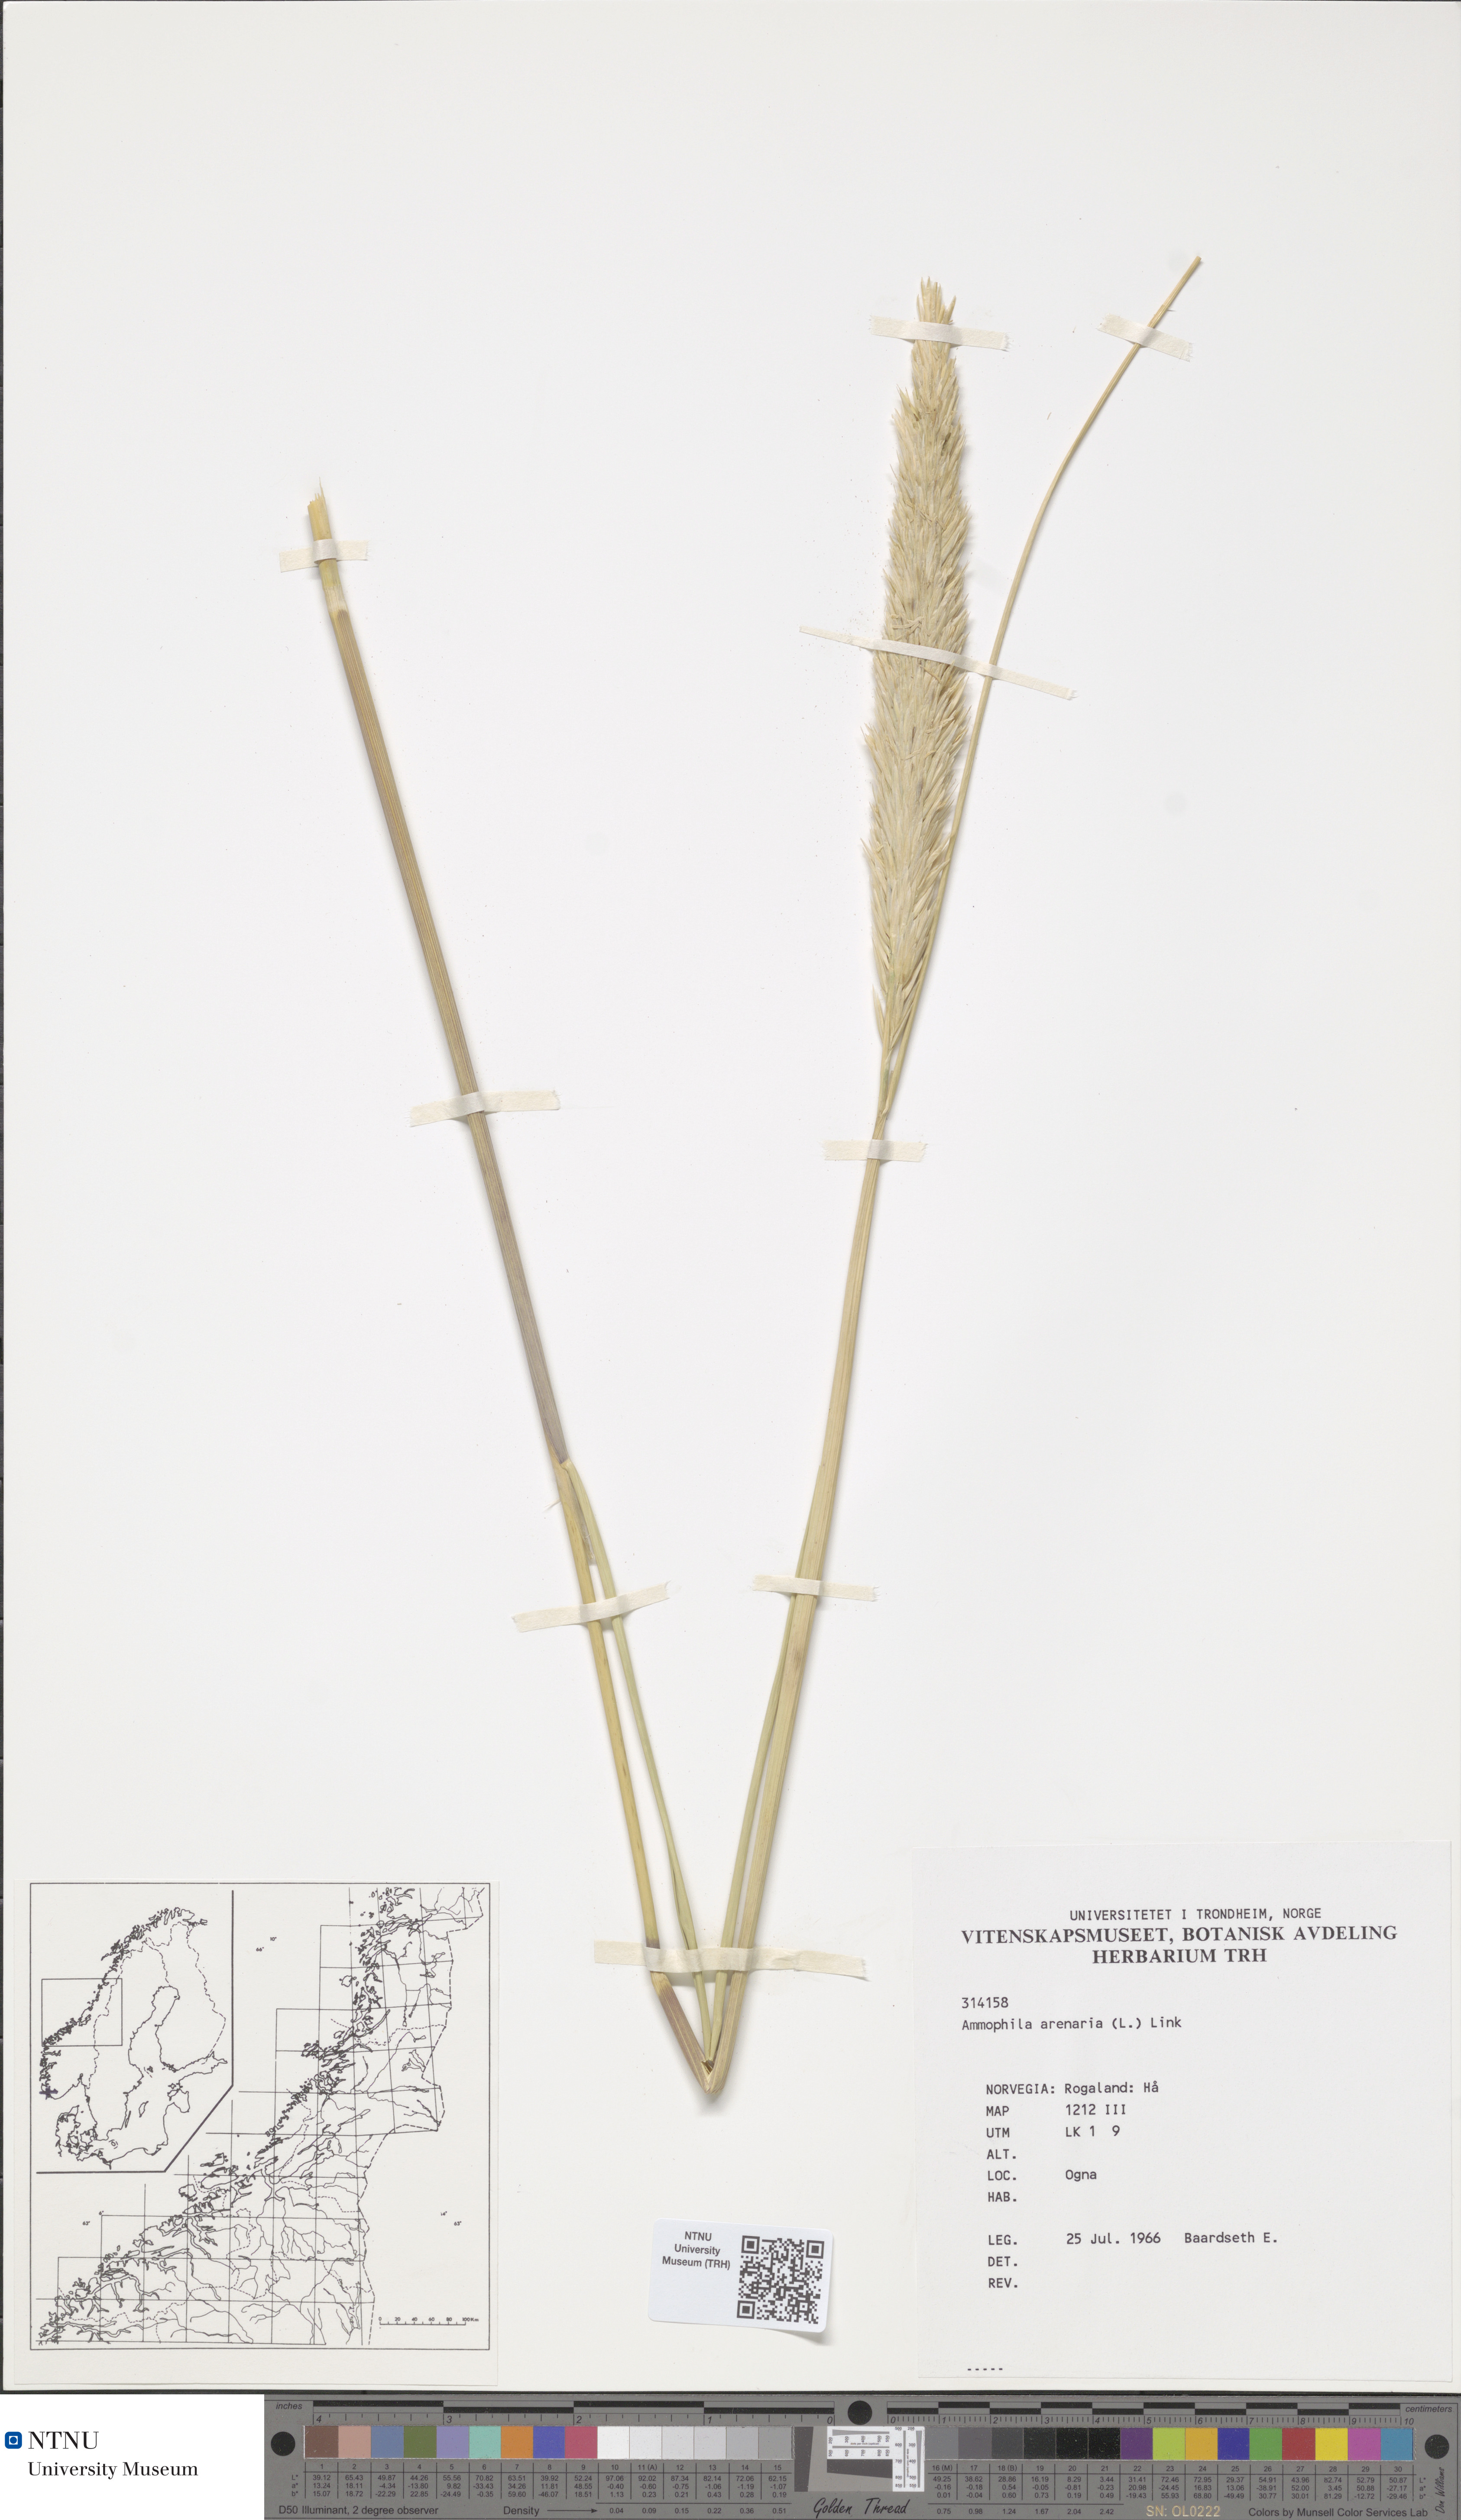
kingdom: Plantae
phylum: Tracheophyta
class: Liliopsida
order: Poales
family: Poaceae
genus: Calamagrostis
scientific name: Calamagrostis arenaria
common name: European beachgrass
